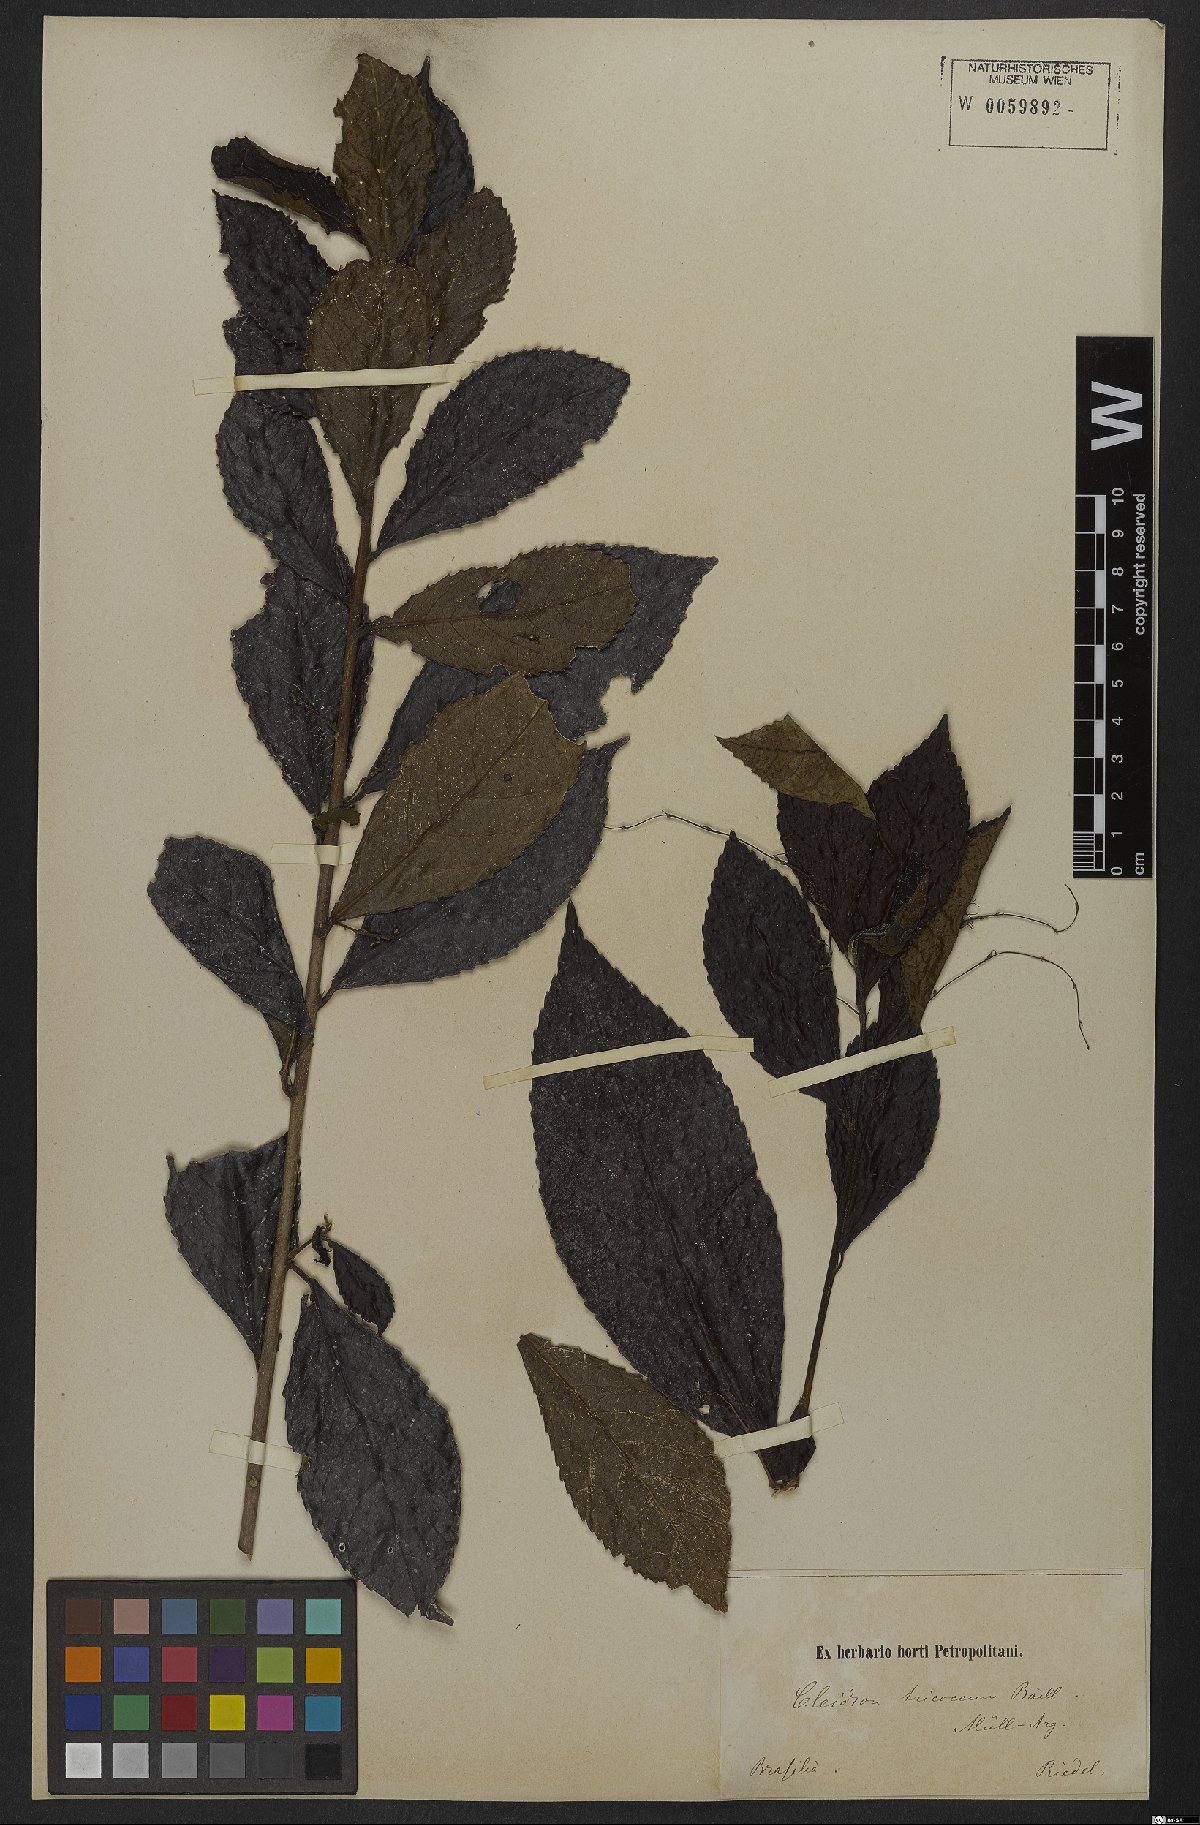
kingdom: Plantae
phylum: Tracheophyta
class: Magnoliopsida
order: Malpighiales
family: Euphorbiaceae
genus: Cleidion
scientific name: Cleidion tricoccum
